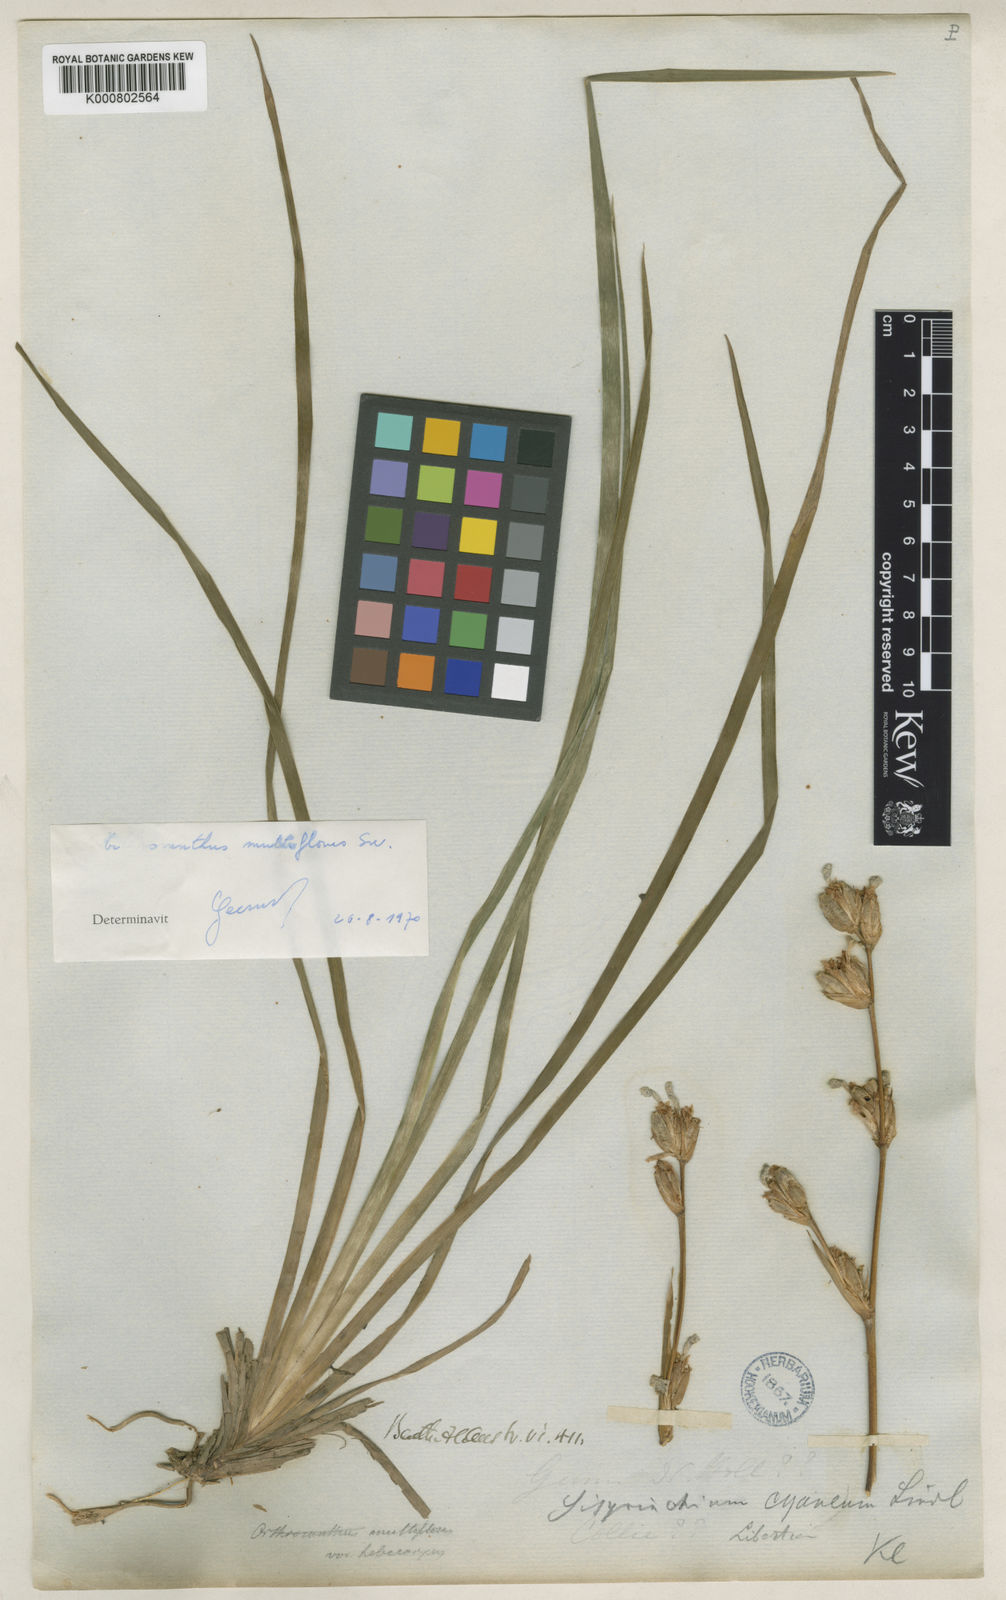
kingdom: Plantae
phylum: Tracheophyta
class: Liliopsida
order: Asparagales
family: Iridaceae
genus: Orthrosanthus
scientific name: Orthrosanthus multiflorus
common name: Morning-flag
